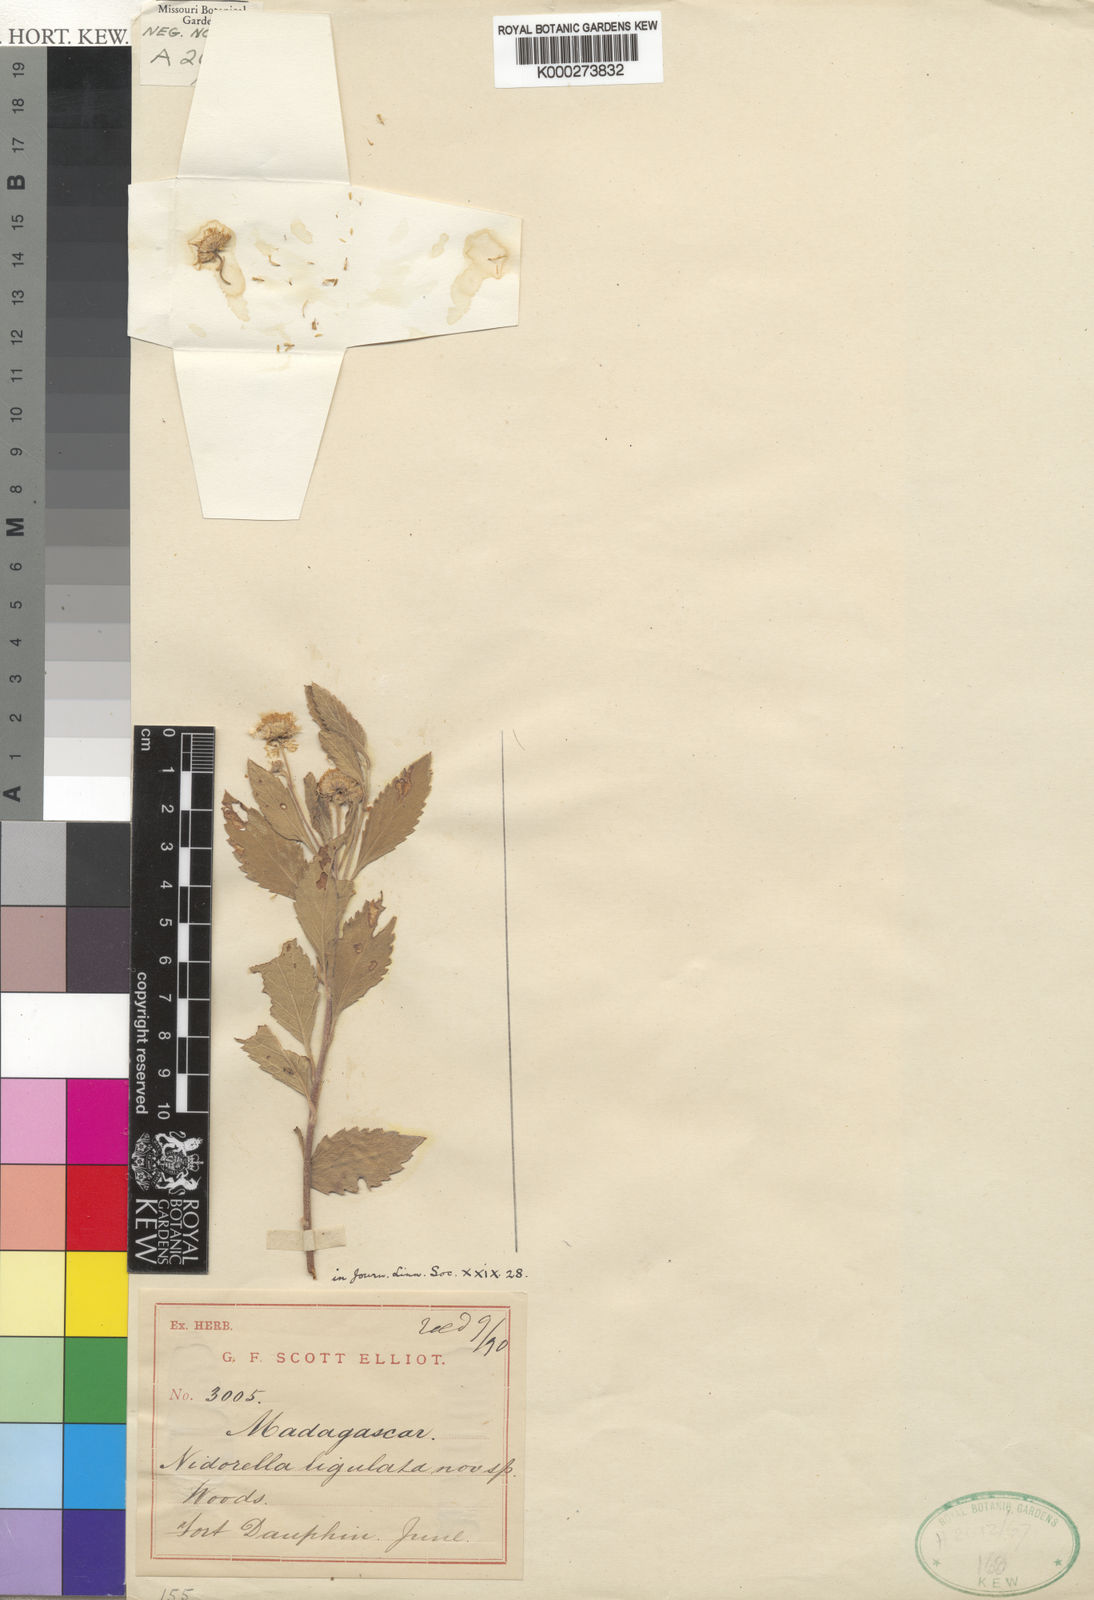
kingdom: Plantae
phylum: Tracheophyta
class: Magnoliopsida
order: Asterales
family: Asteraceae
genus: Psiadia
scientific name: Psiadia agatheoides
